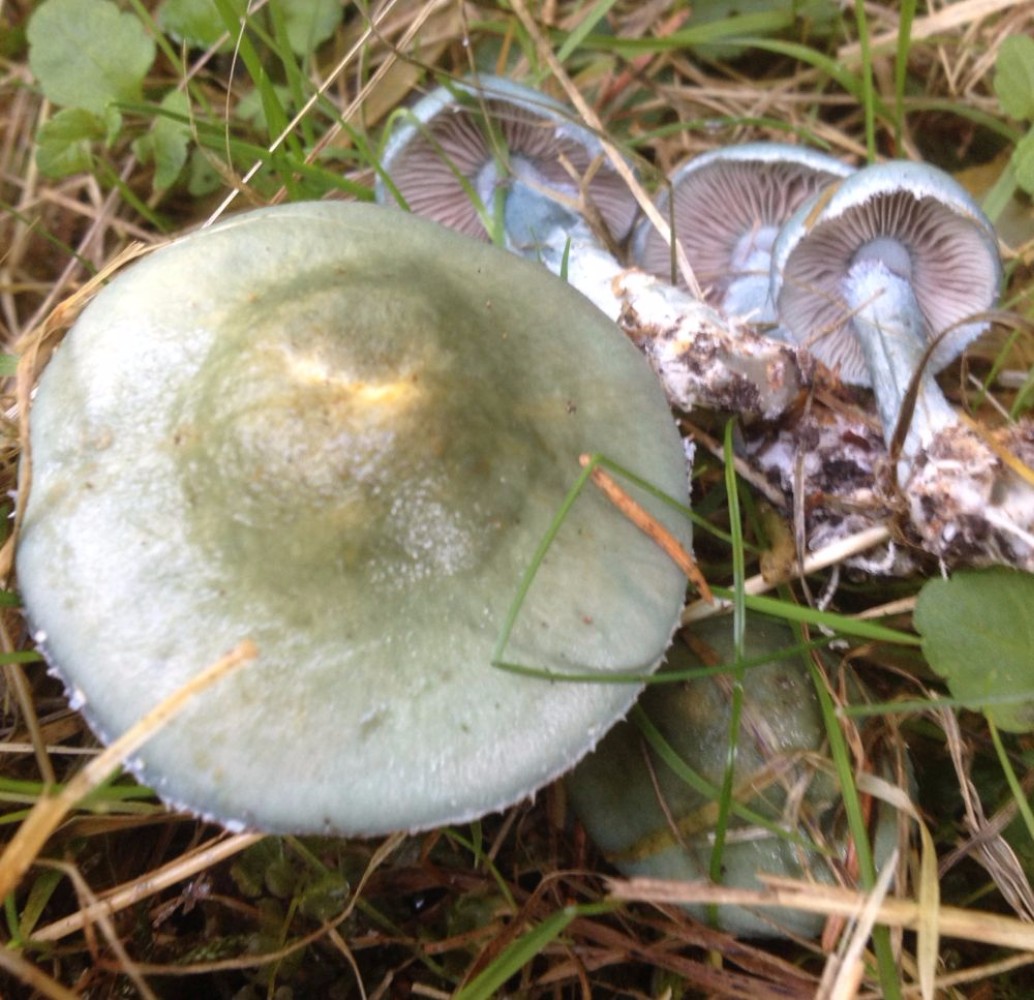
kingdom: Fungi
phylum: Basidiomycota
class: Agaricomycetes
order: Agaricales
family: Strophariaceae
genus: Stropharia
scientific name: Stropharia cyanea
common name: blågrøn bredblad
